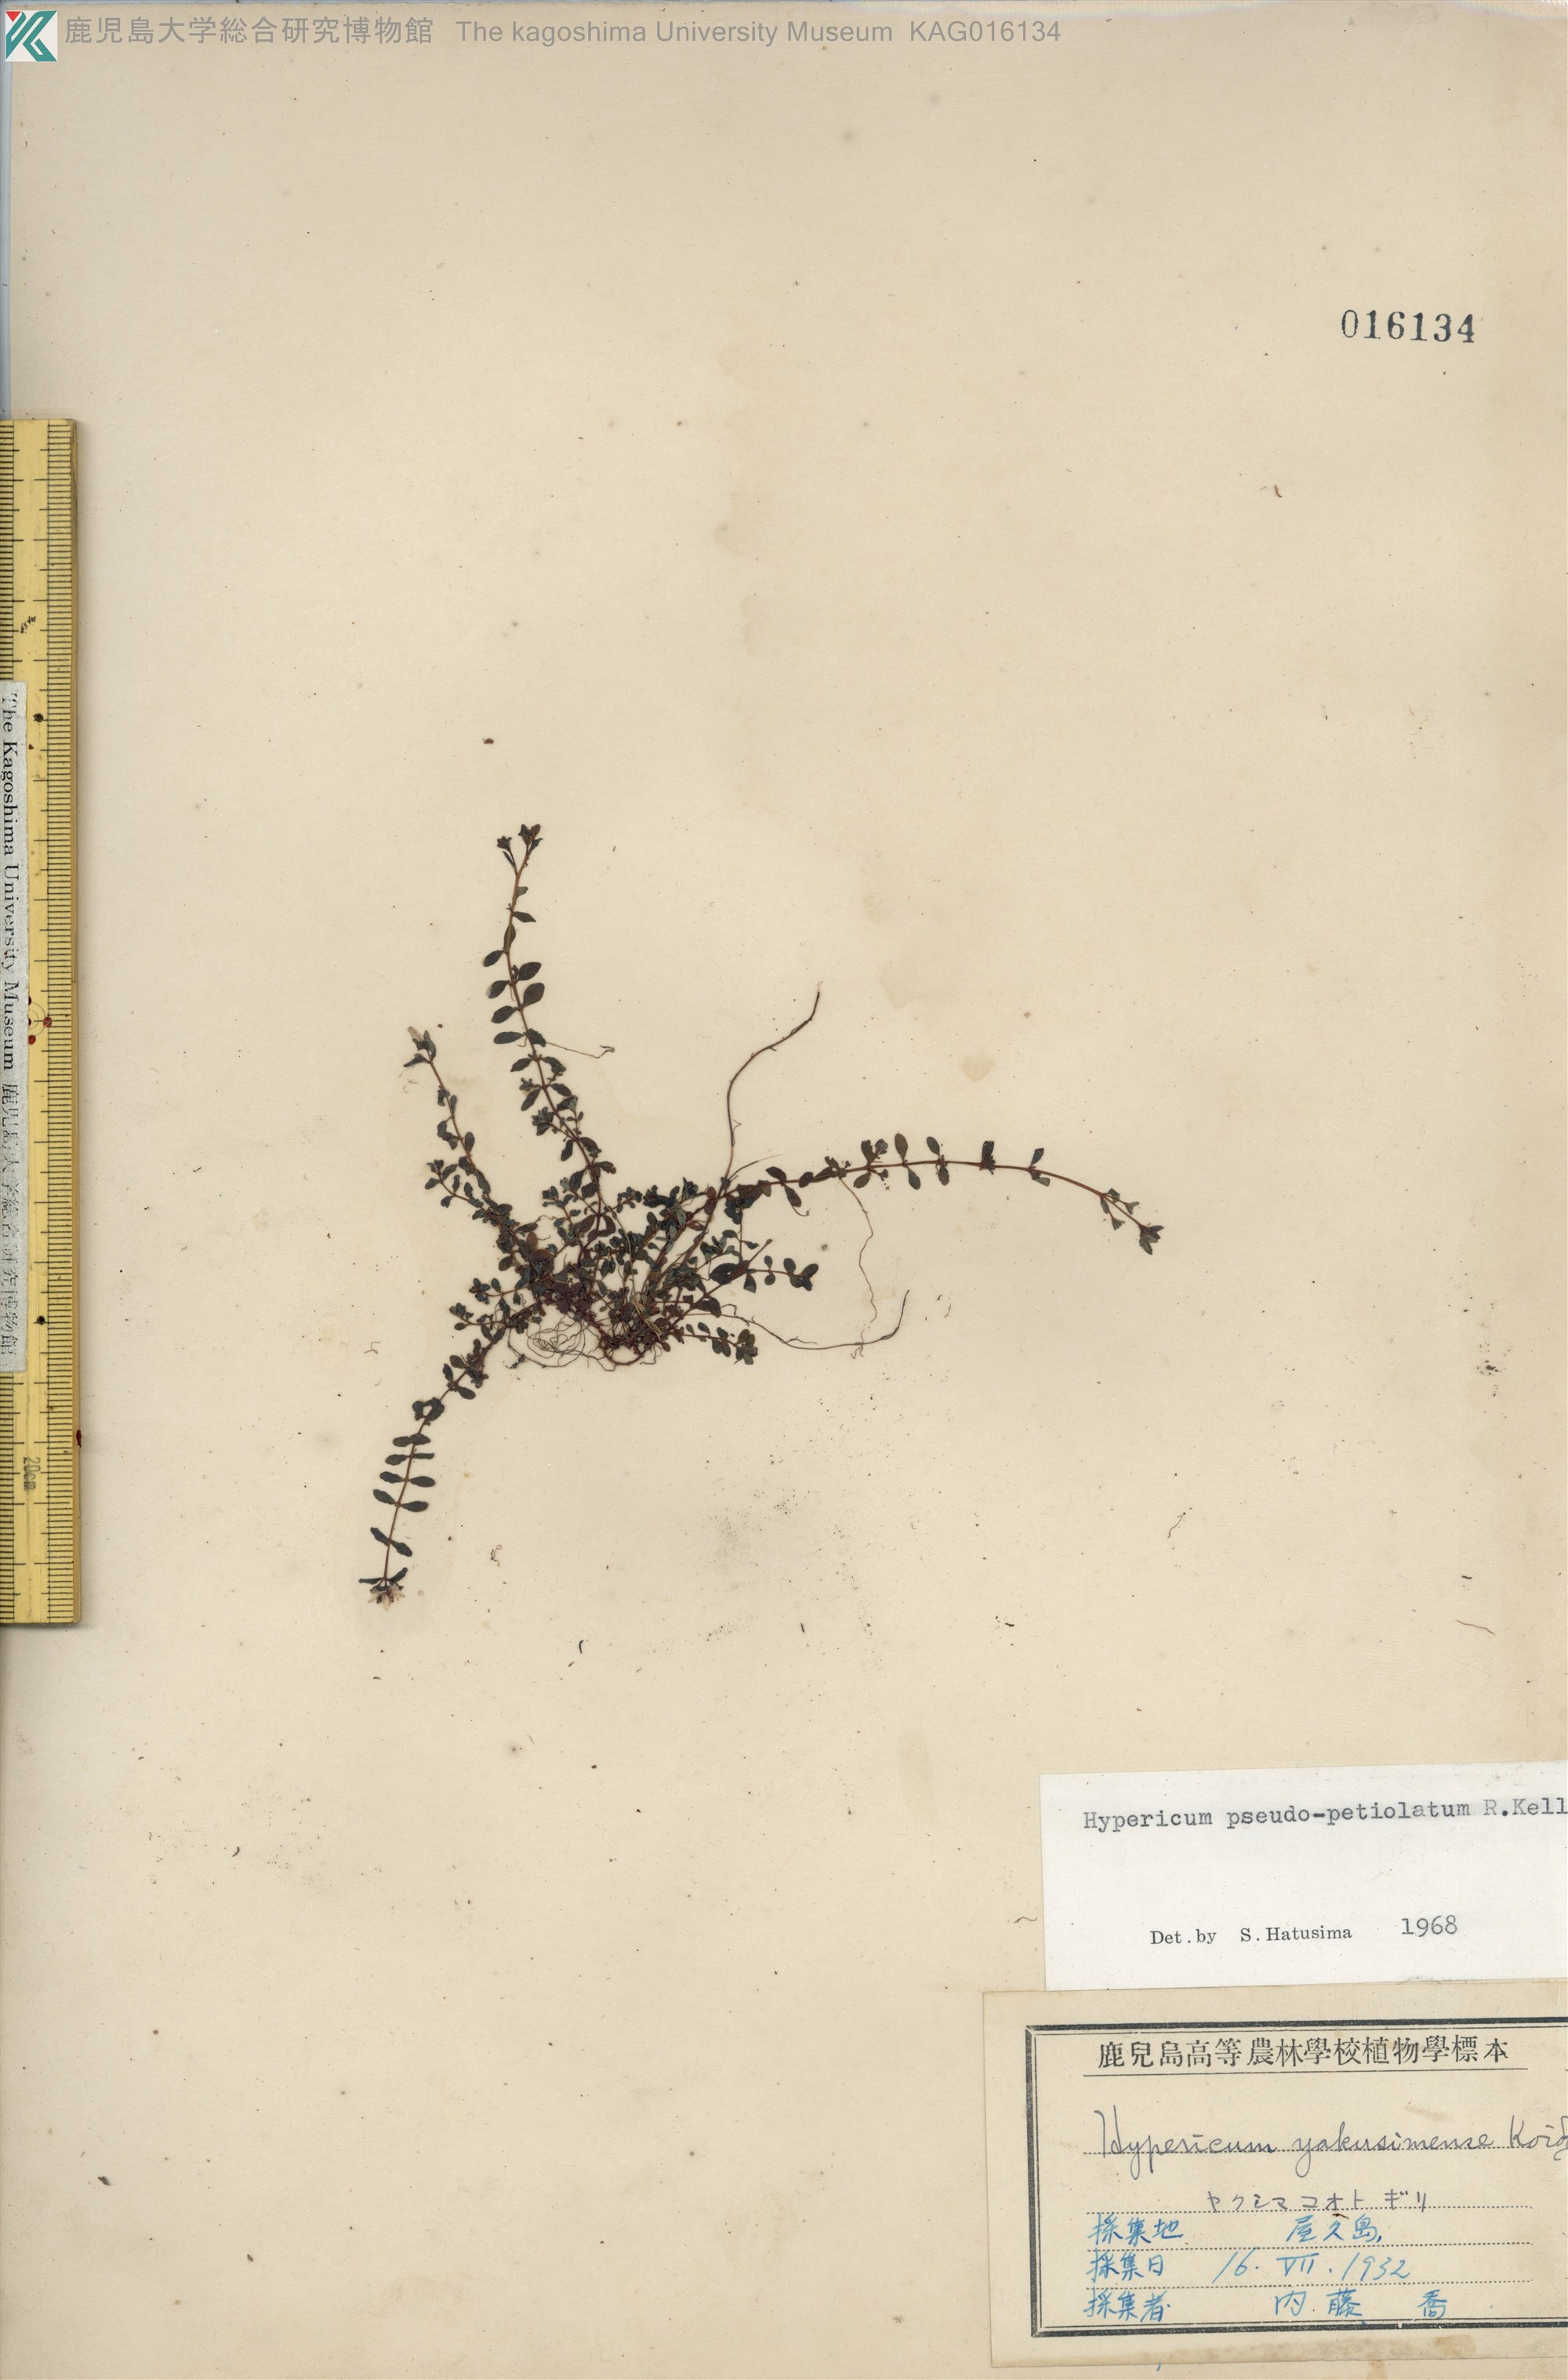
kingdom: Plantae
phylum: Tracheophyta
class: Magnoliopsida
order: Malpighiales
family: Hypericaceae
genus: Hypericum
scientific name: Hypericum pseudopetiolatum
